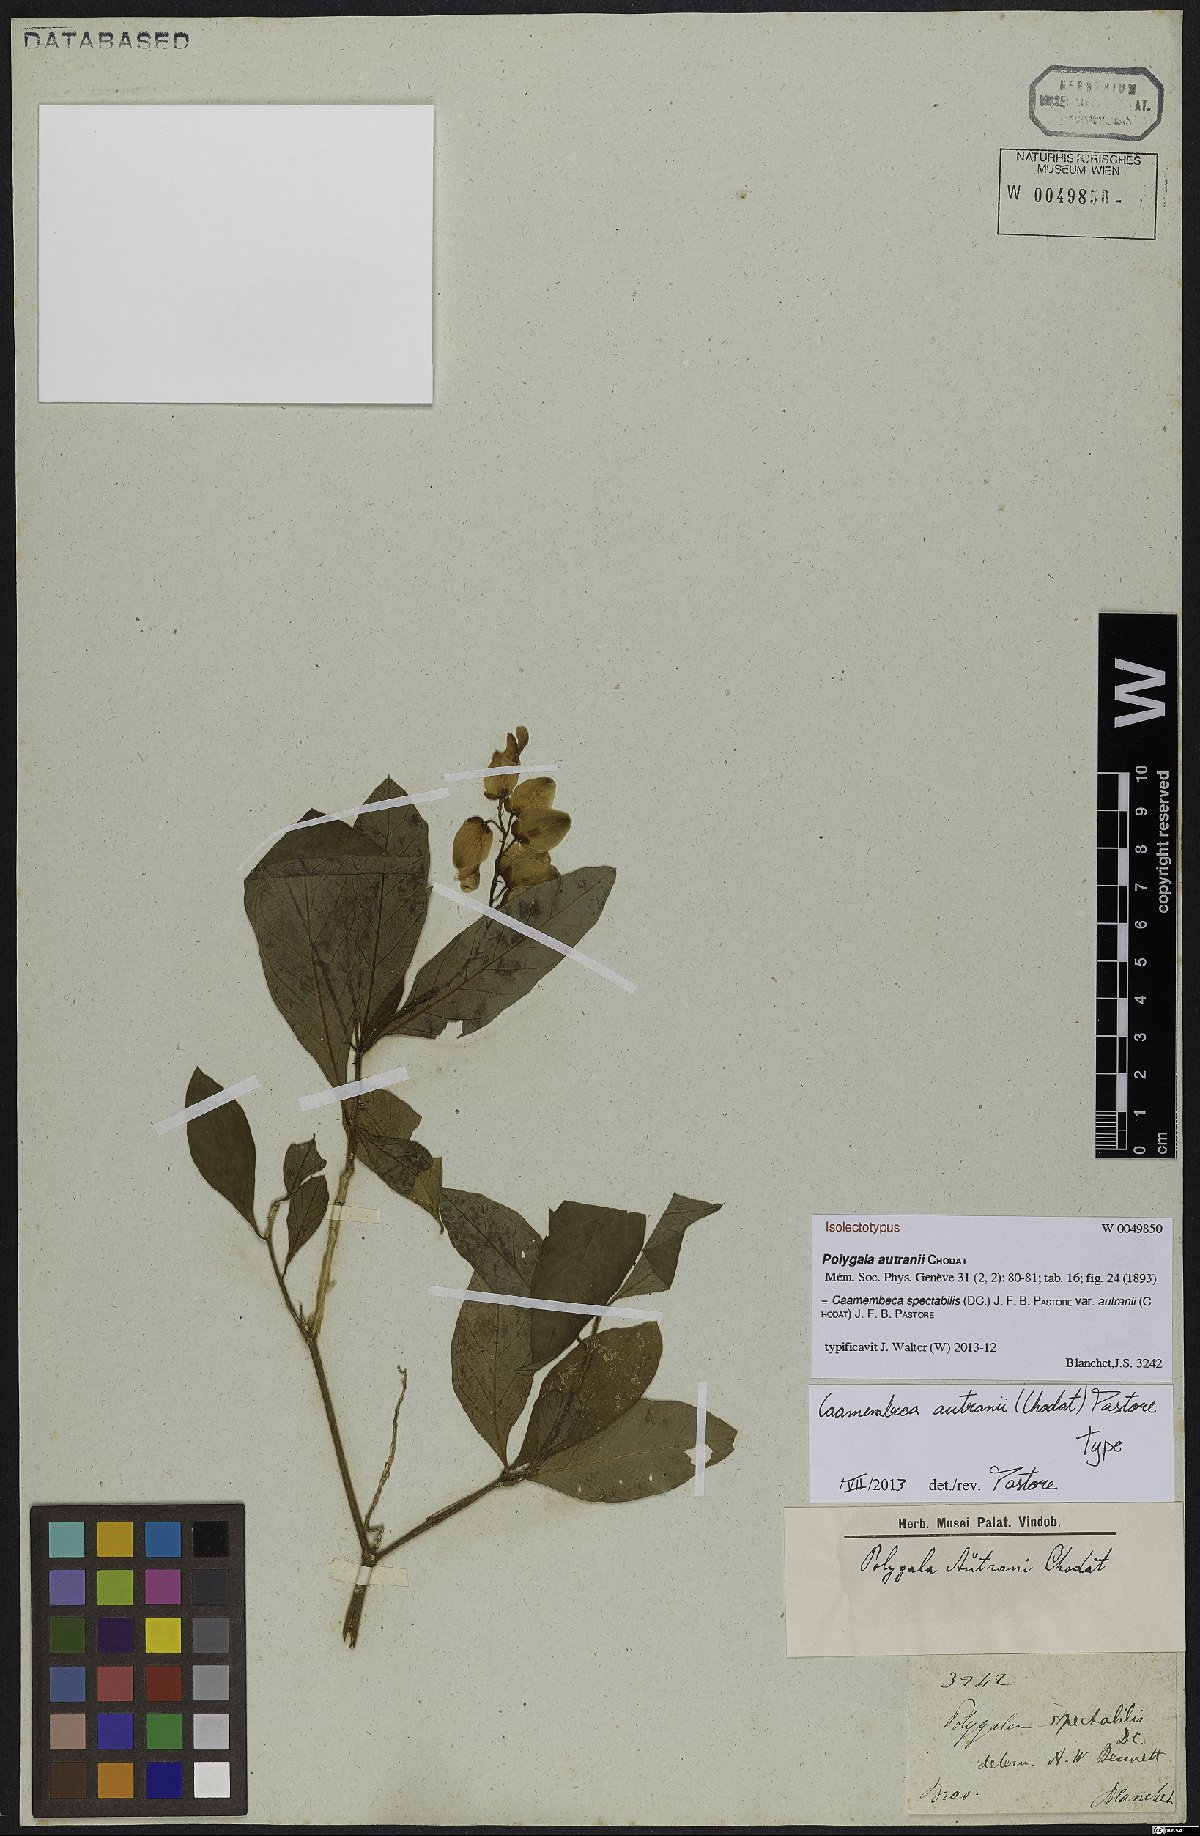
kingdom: Plantae
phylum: Tracheophyta
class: Magnoliopsida
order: Fabales
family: Polygalaceae
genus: Caamembeca
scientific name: Caamembeca autranii
